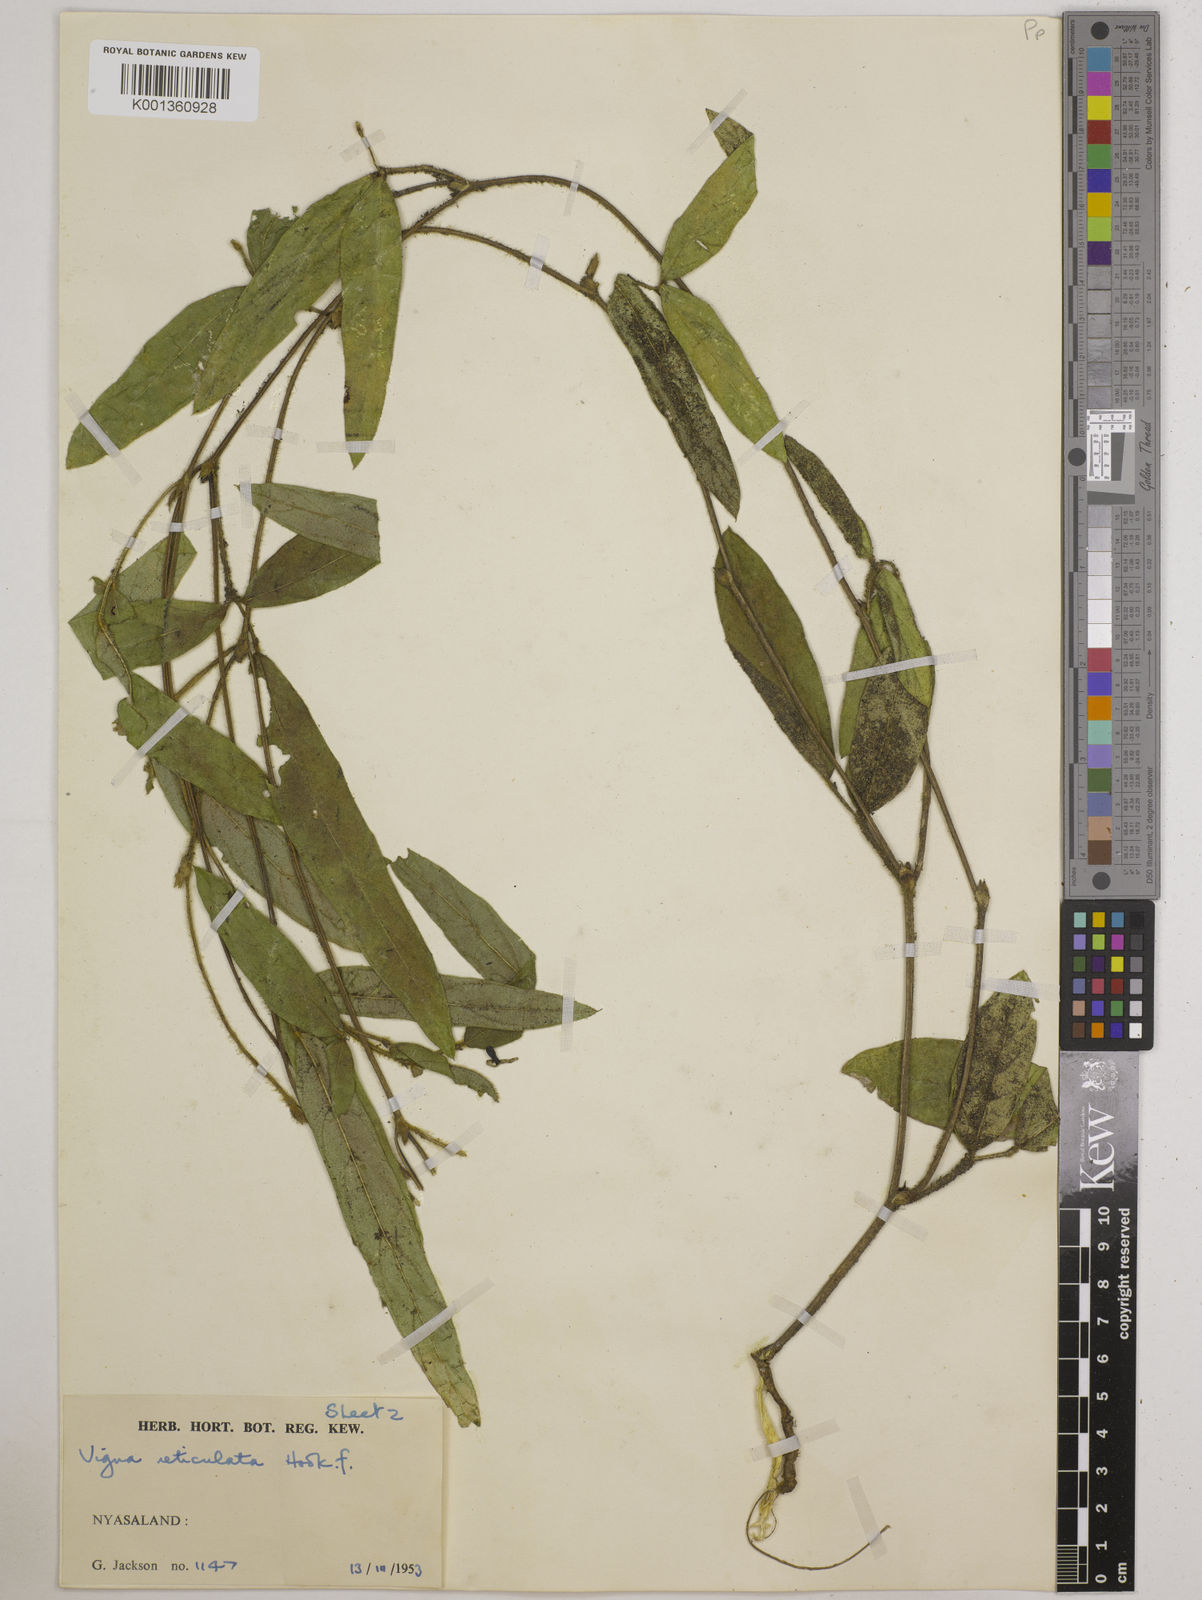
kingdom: Plantae
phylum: Tracheophyta
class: Magnoliopsida
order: Fabales
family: Fabaceae
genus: Vigna
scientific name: Vigna reticulata
